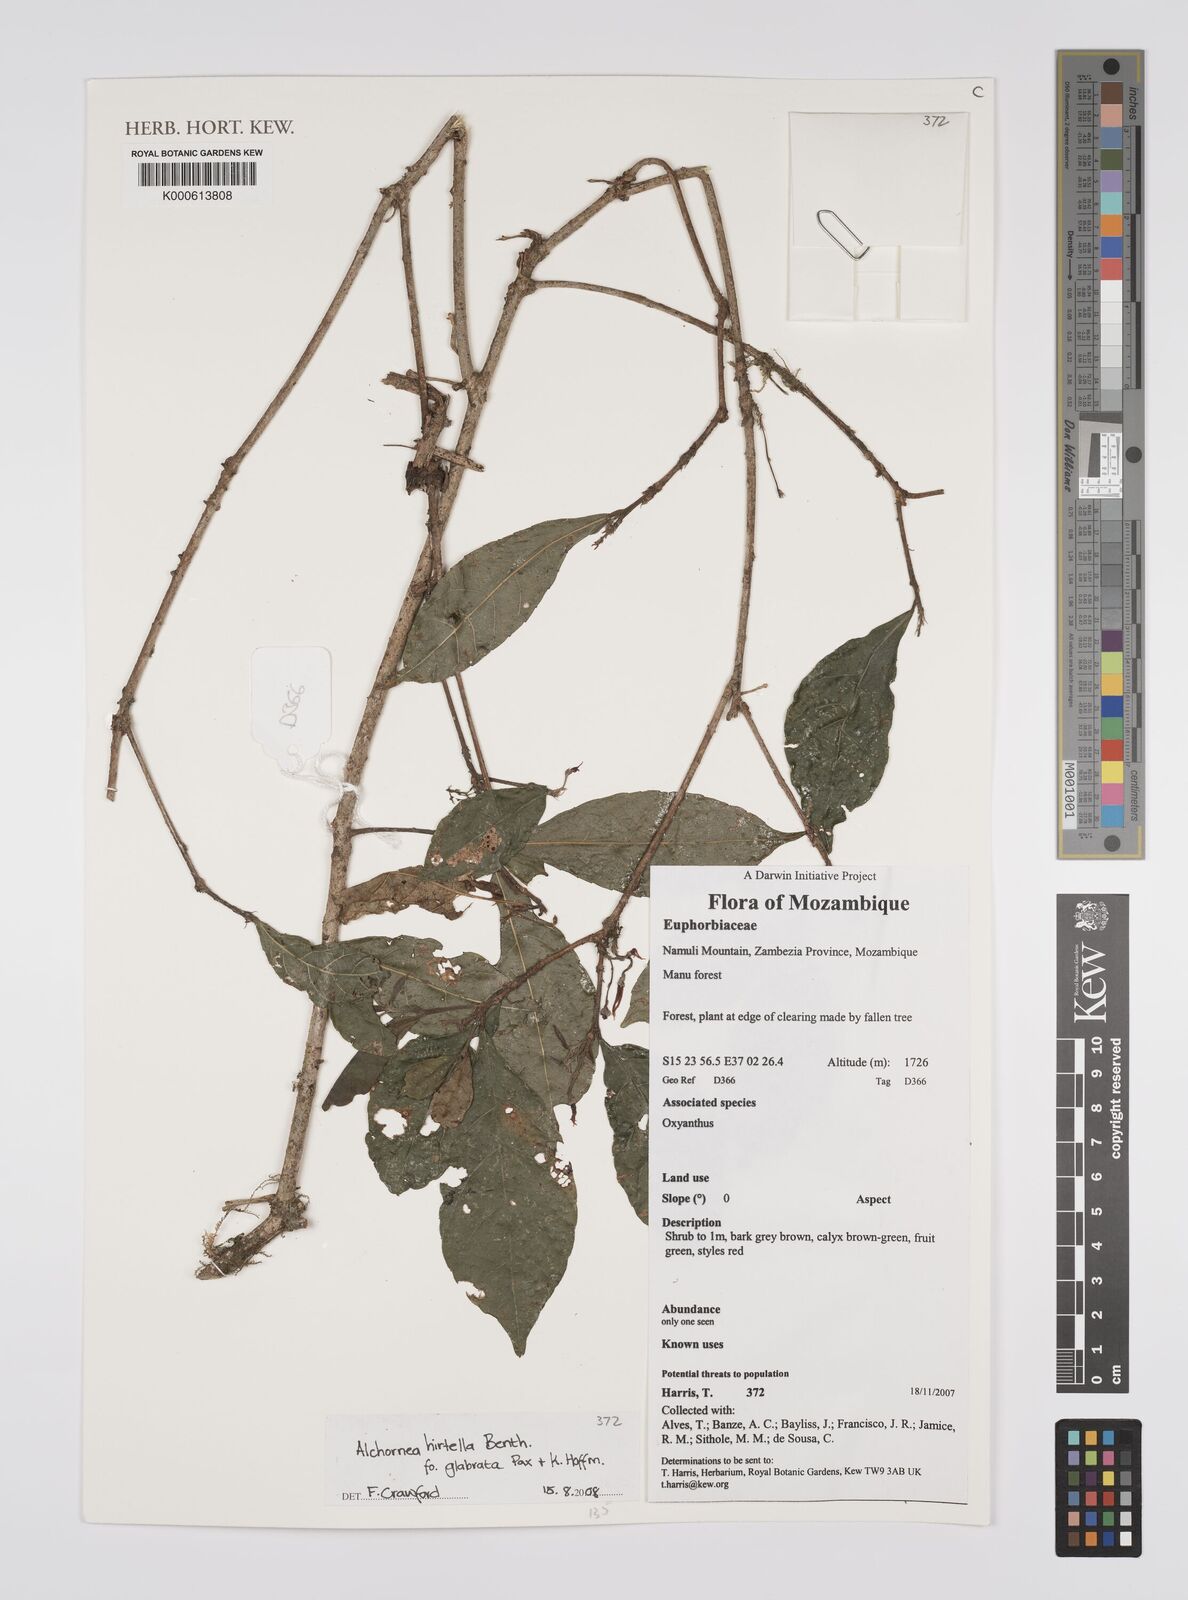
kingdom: Plantae
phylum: Tracheophyta
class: Magnoliopsida
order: Malpighiales
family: Euphorbiaceae
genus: Alchornea
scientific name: Alchornea hirtella
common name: Forest bead-string
